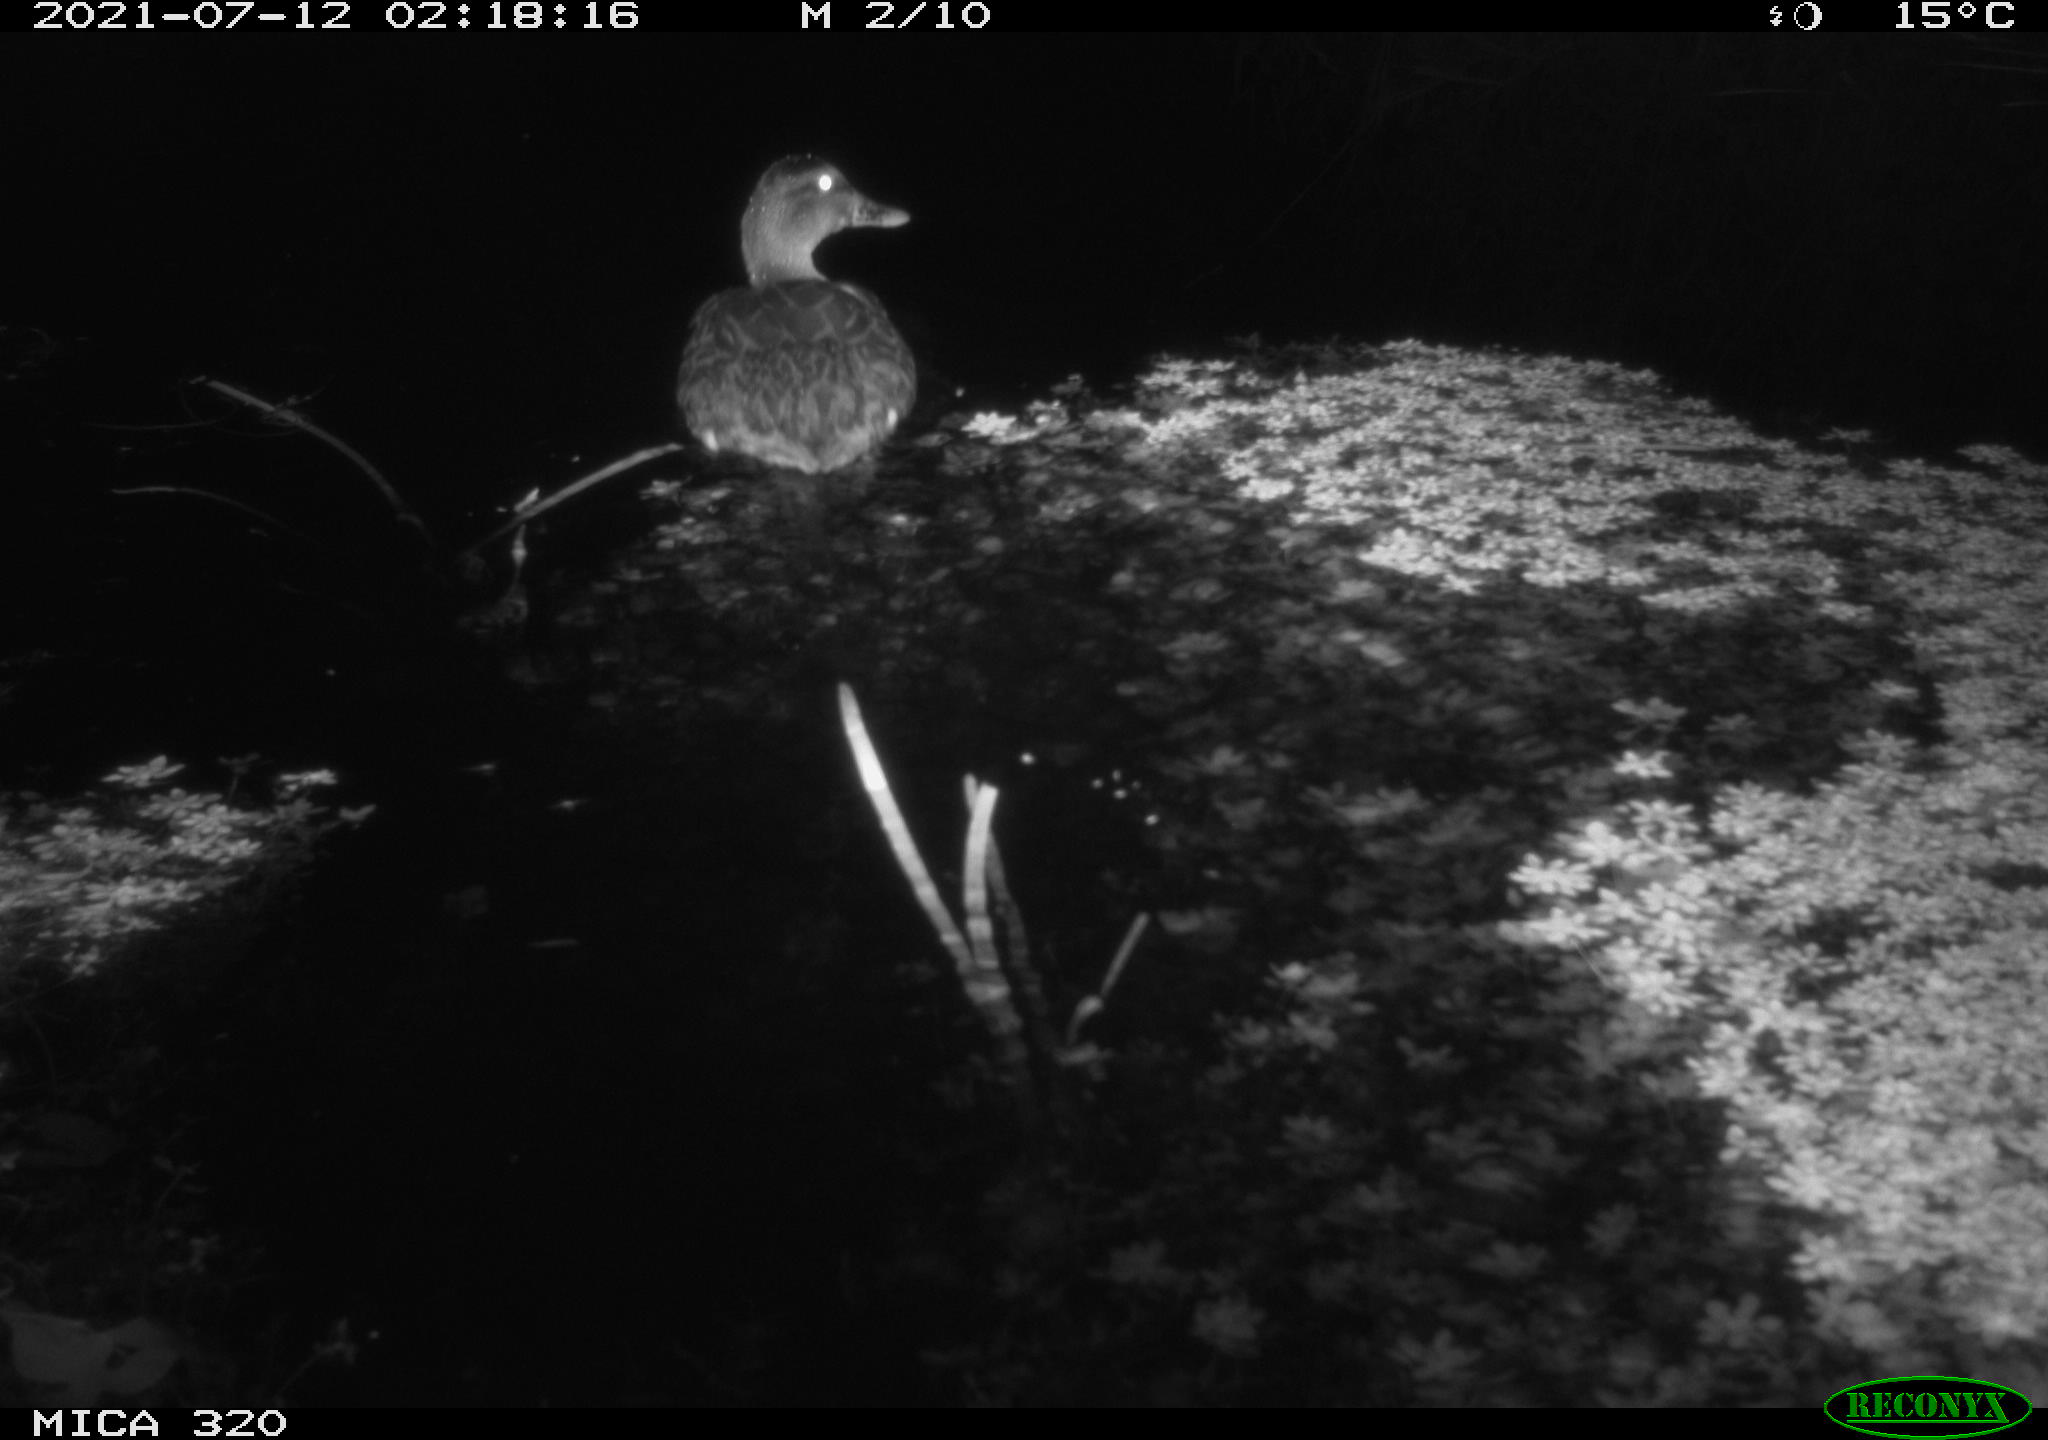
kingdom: Animalia
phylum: Chordata
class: Aves
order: Anseriformes
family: Anatidae
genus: Anas
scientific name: Anas platyrhynchos
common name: Mallard
